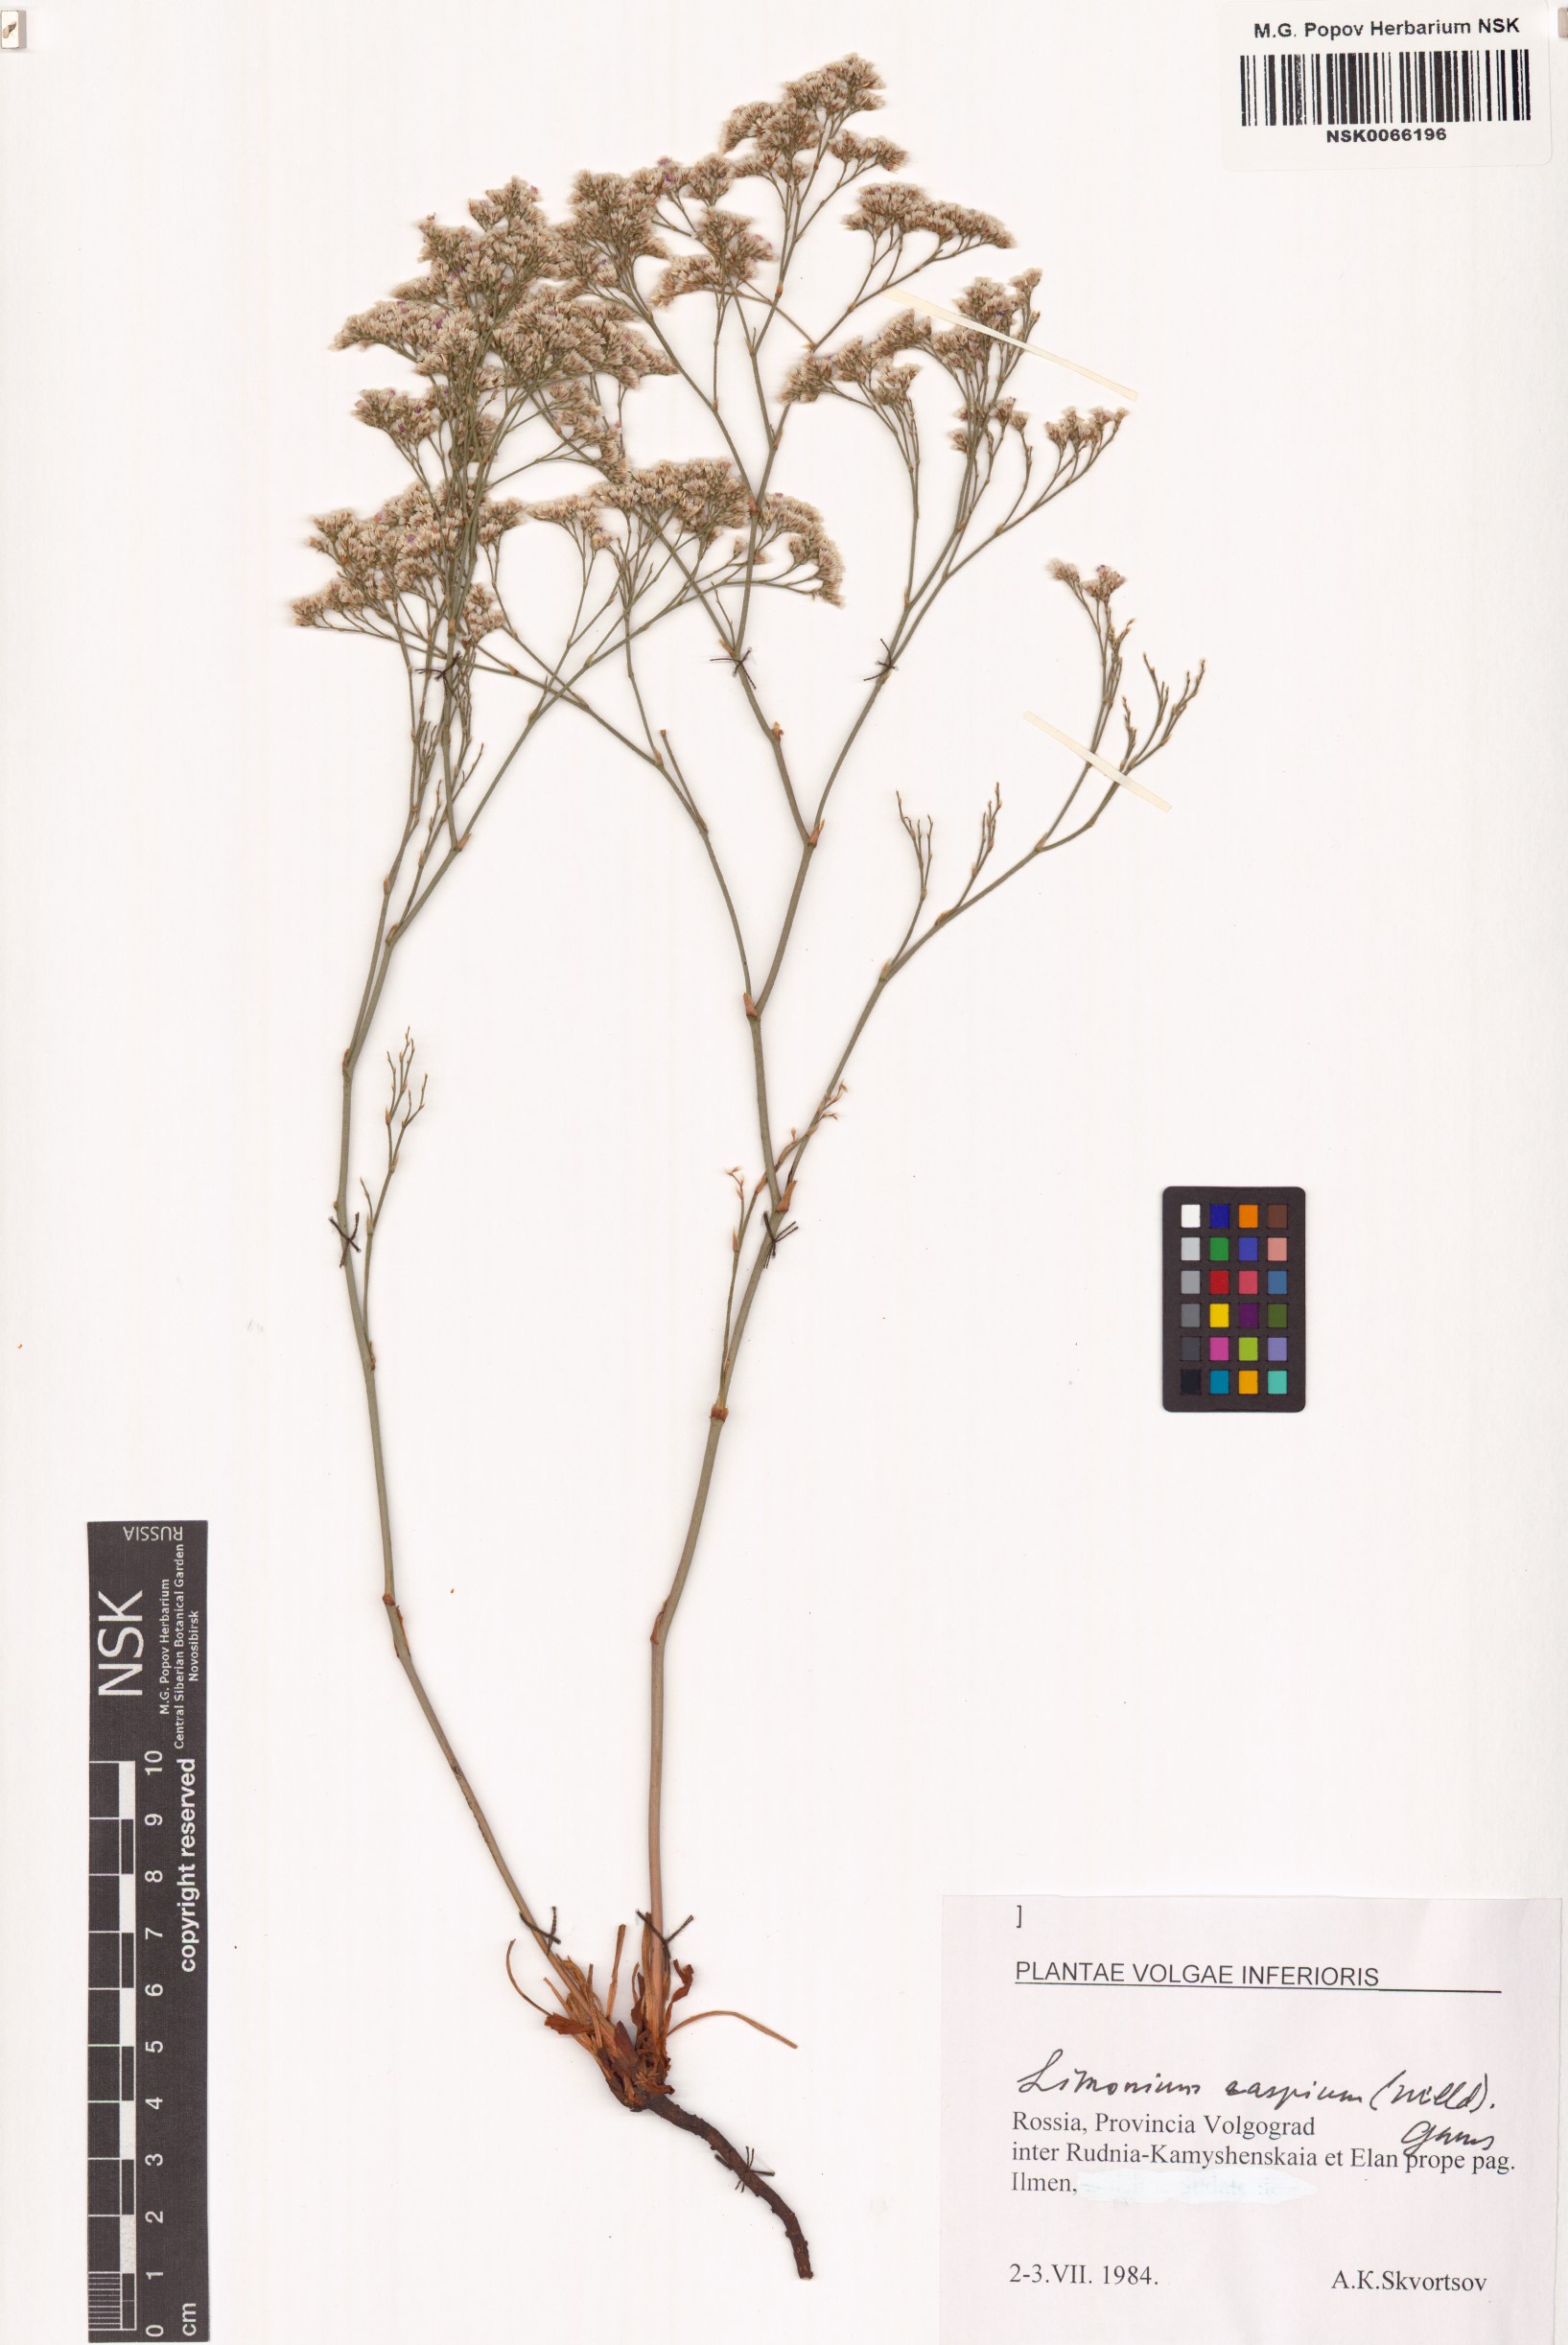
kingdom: Plantae
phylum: Tracheophyta
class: Magnoliopsida
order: Caryophyllales
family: Plumbaginaceae
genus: Limonium
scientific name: Limonium bellidifolium
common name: Matted sea-lavender
